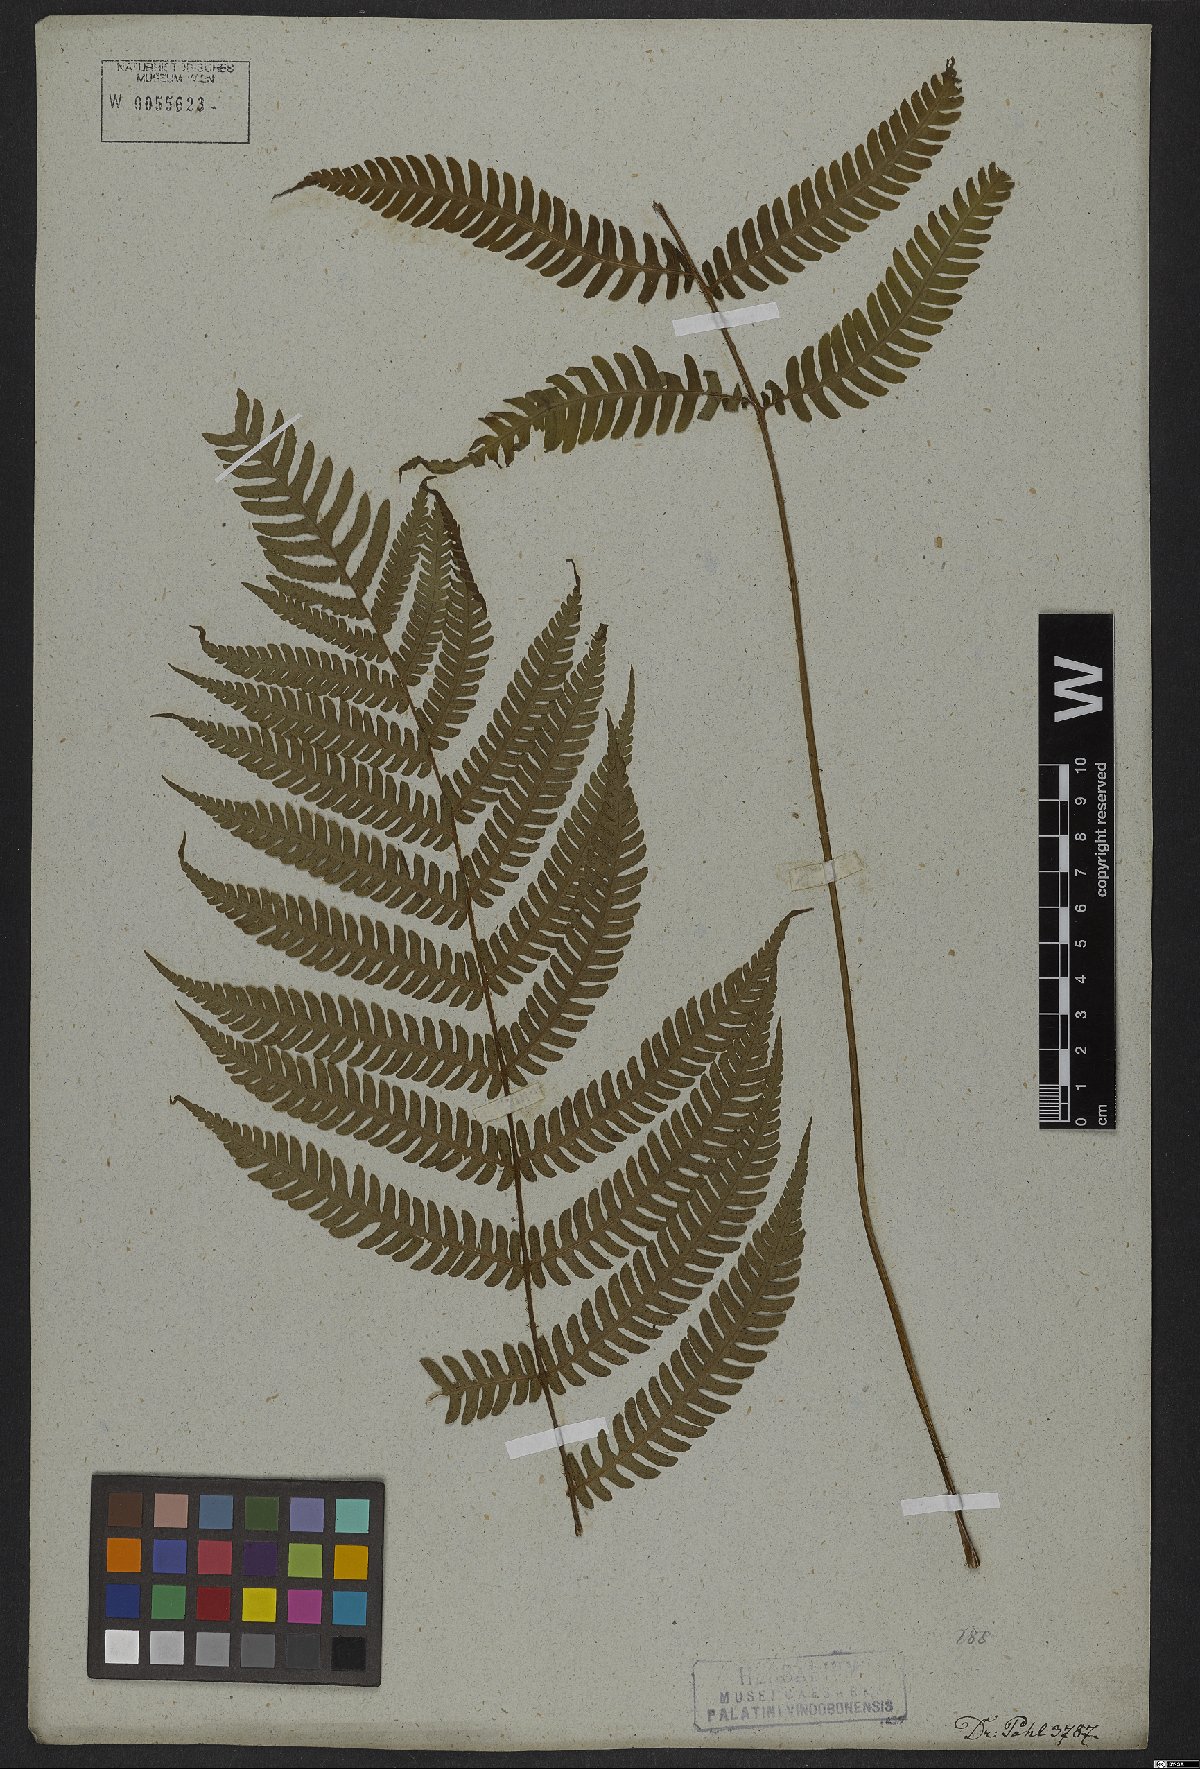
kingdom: Plantae
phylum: Tracheophyta
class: Polypodiopsida
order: Polypodiales
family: Dryopteridaceae
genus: Ctenitis
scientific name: Ctenitis falciculata
